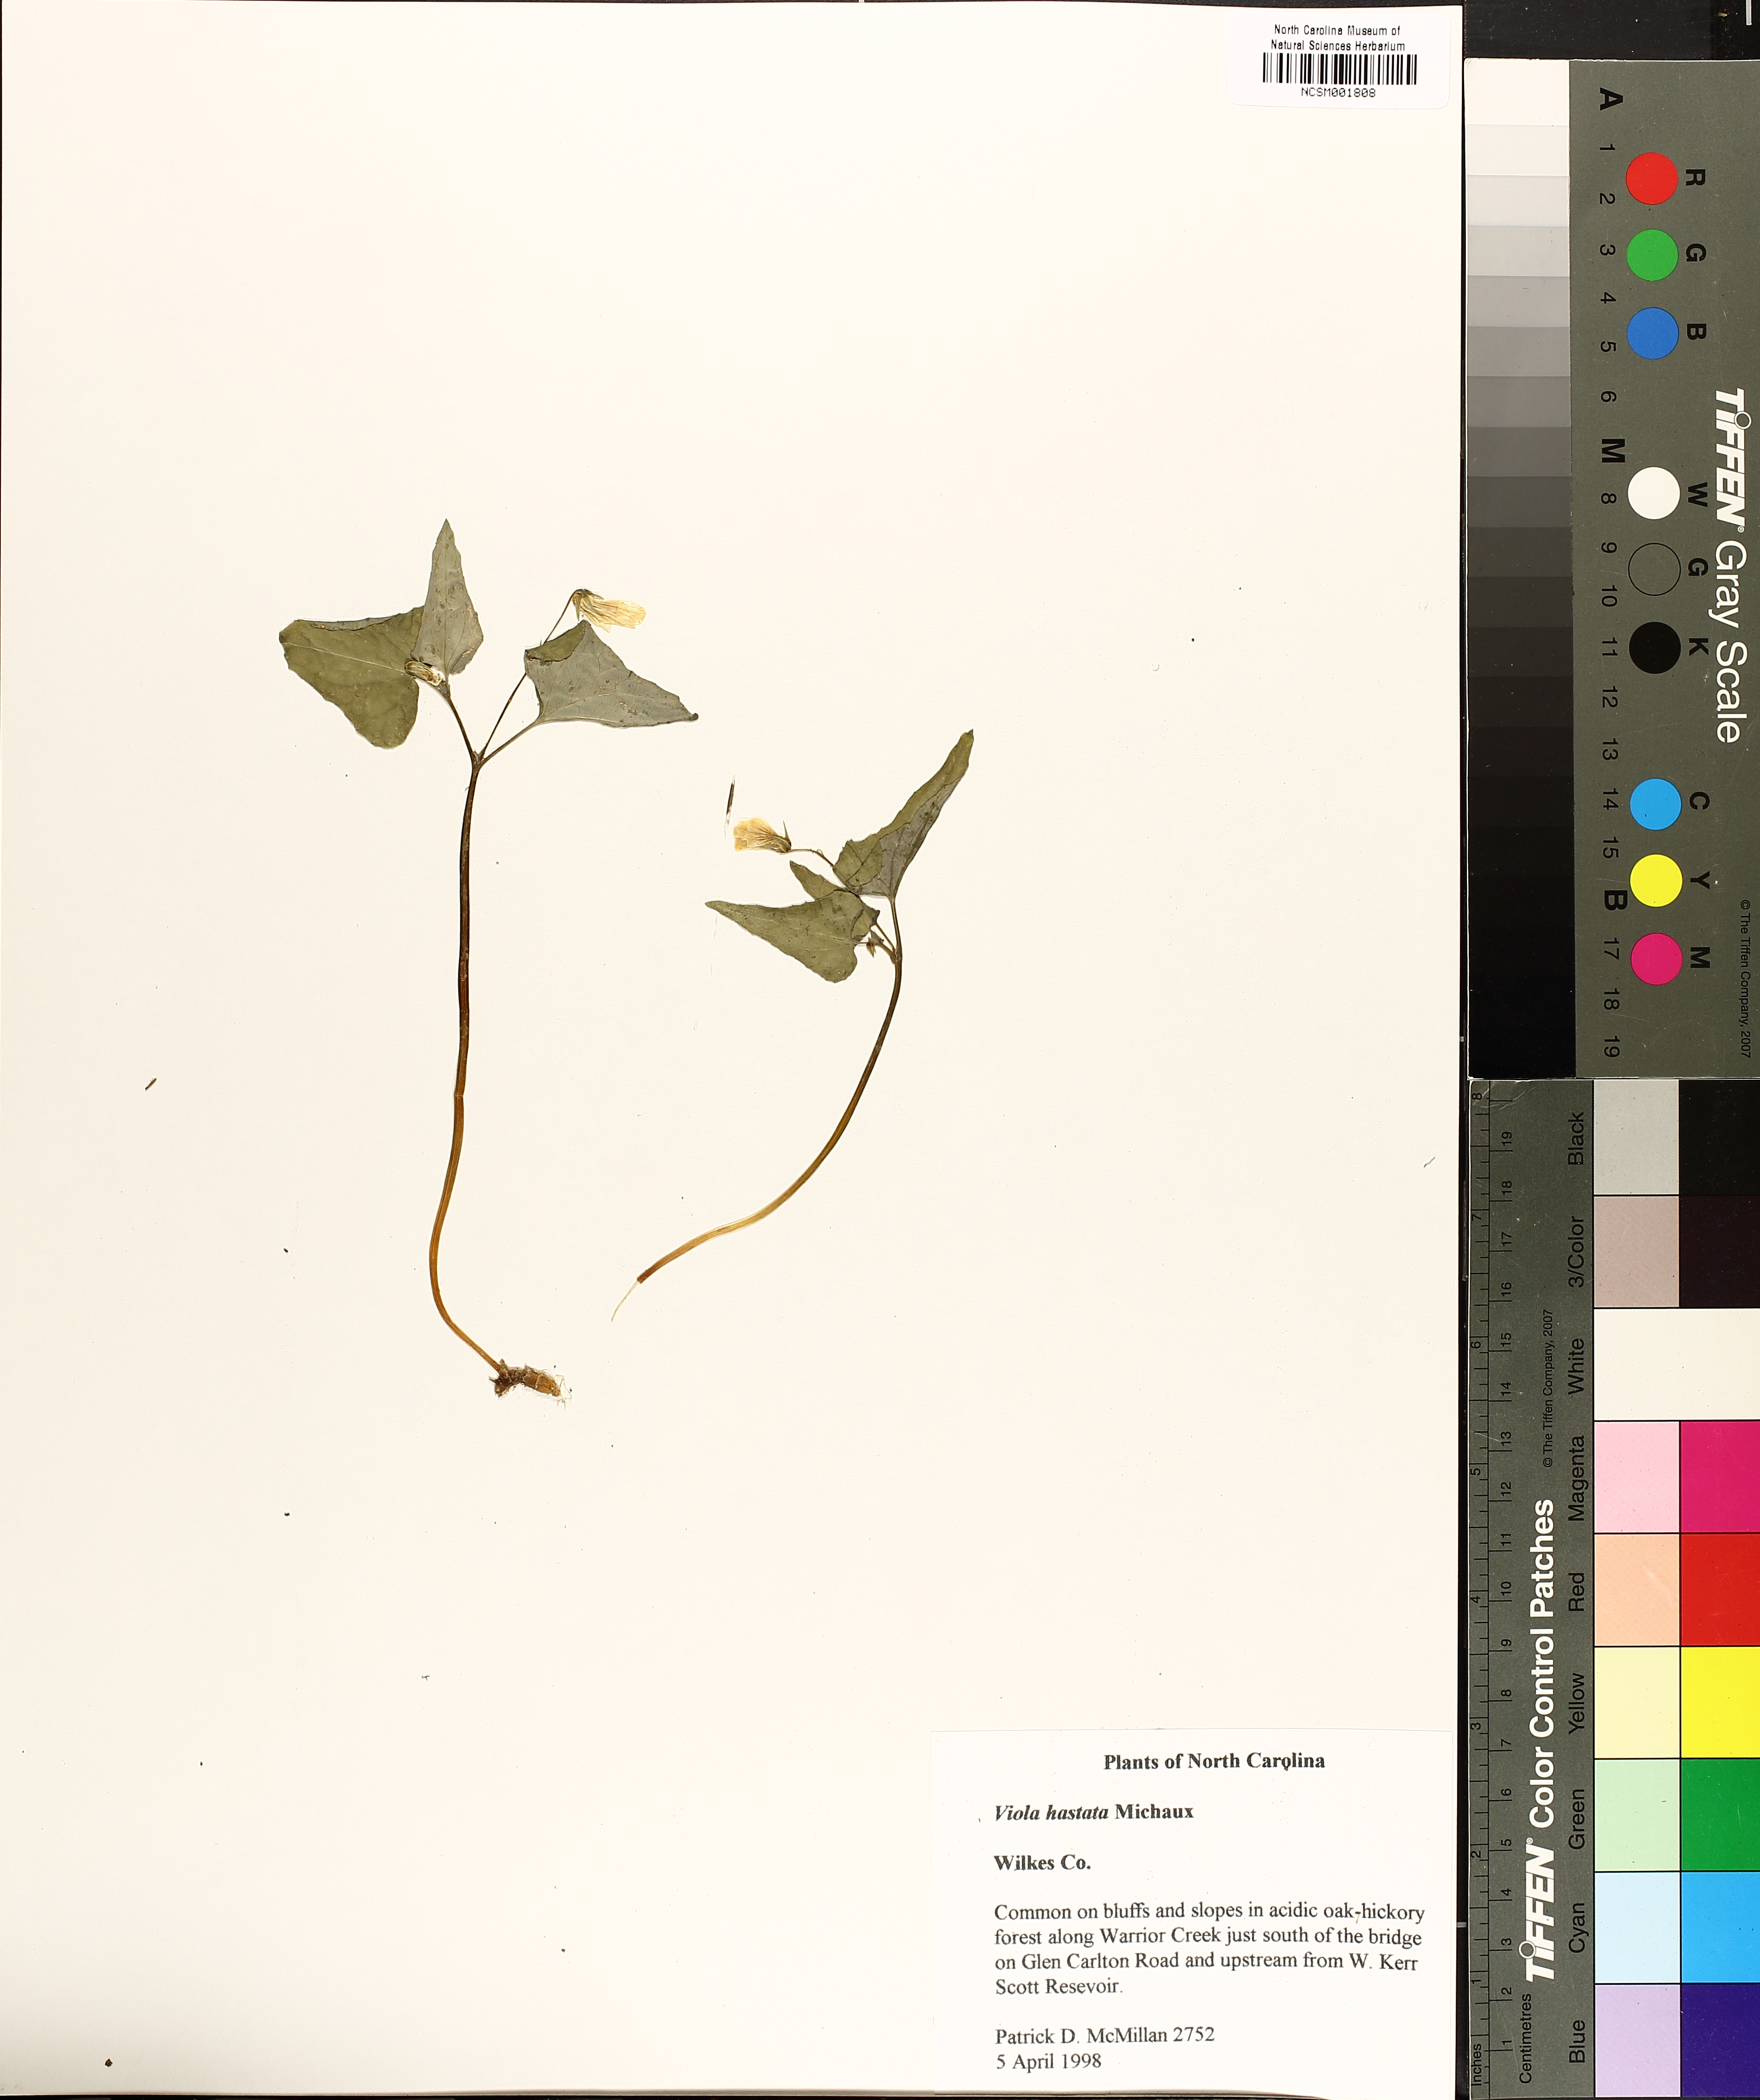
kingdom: Plantae
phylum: Tracheophyta
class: Magnoliopsida
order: Malpighiales
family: Violaceae
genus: Viola
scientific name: Viola hastata
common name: Spear-leaf violet
